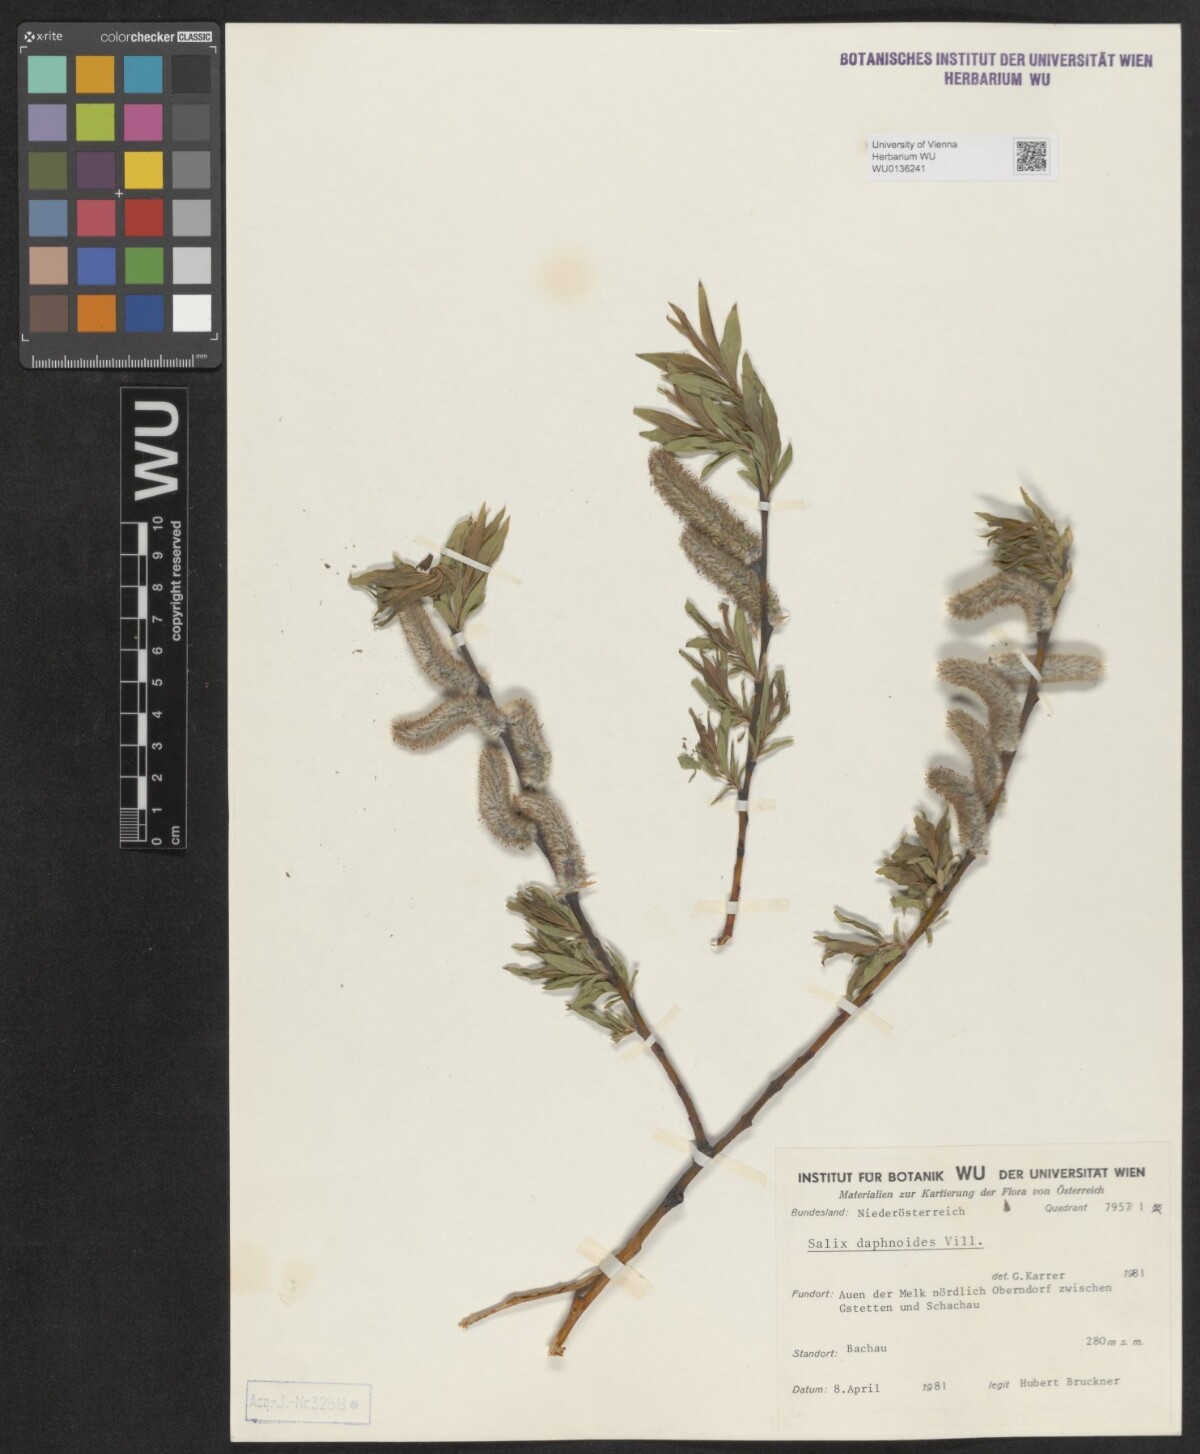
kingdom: Plantae
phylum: Tracheophyta
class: Magnoliopsida
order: Malpighiales
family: Salicaceae
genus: Salix
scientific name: Salix daphnoides
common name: European violet-willow
